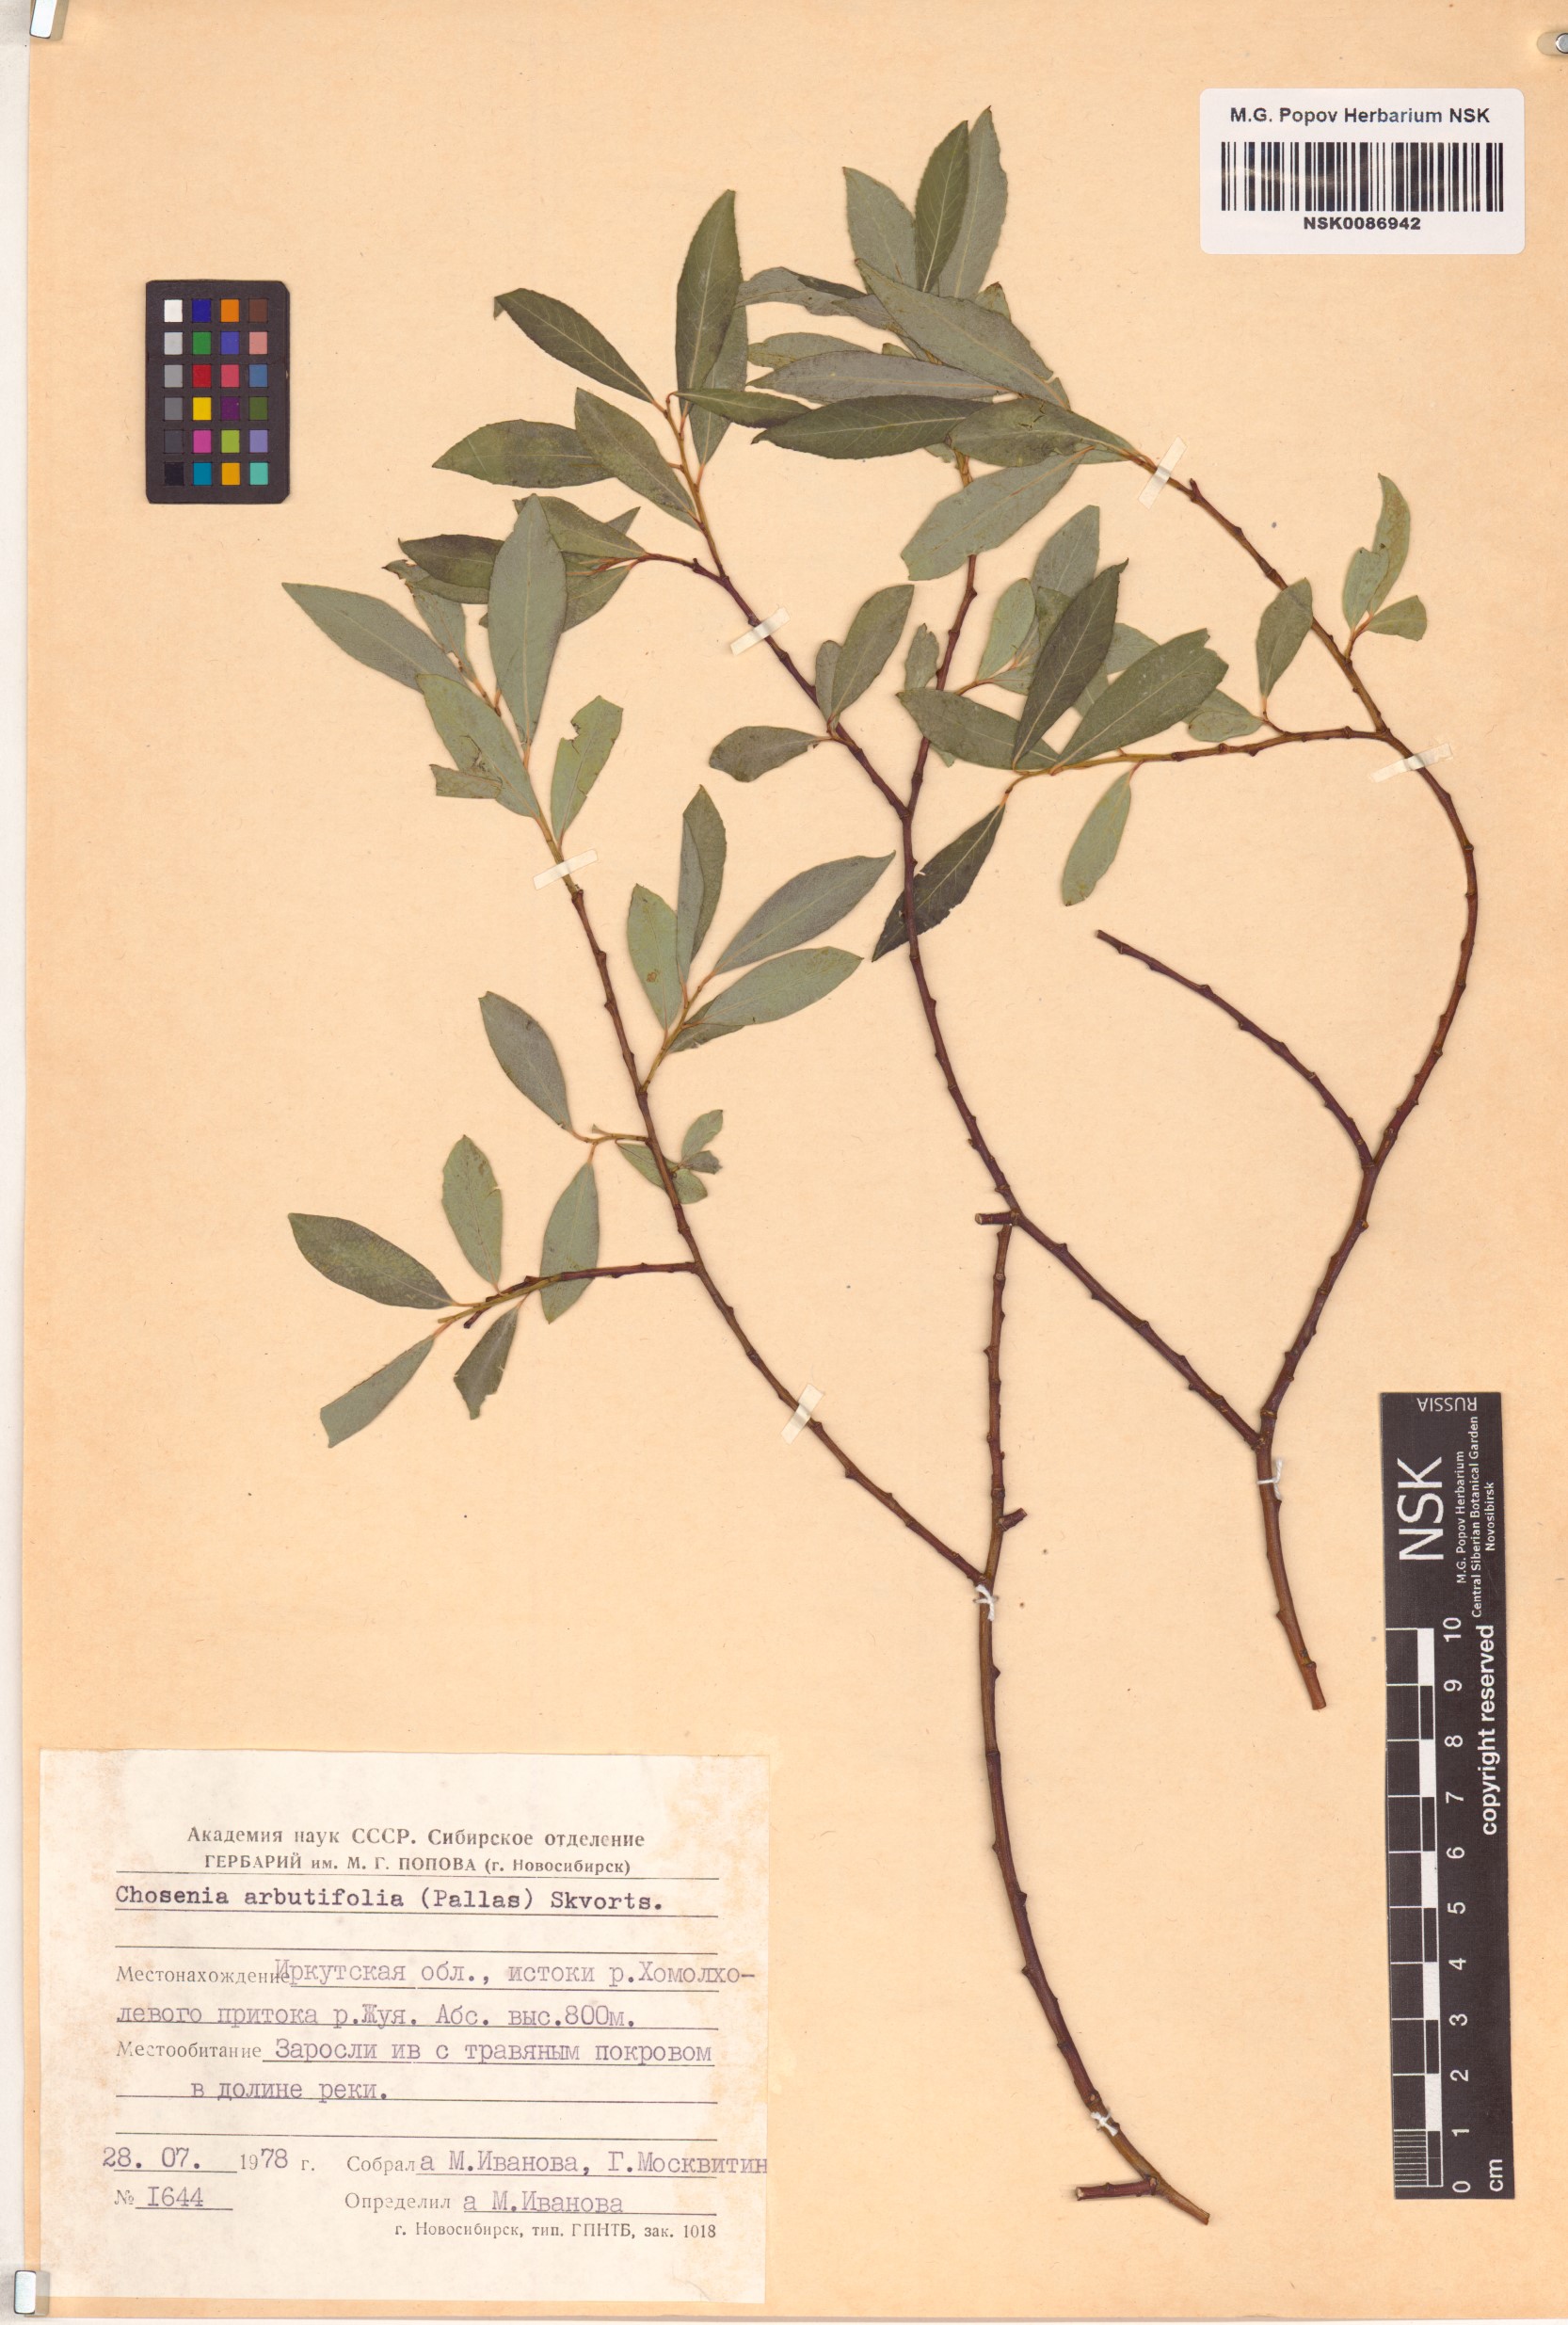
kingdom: Plantae
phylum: Tracheophyta
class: Magnoliopsida
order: Malpighiales
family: Salicaceae
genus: Chosenia
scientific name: Chosenia arbutifolia
